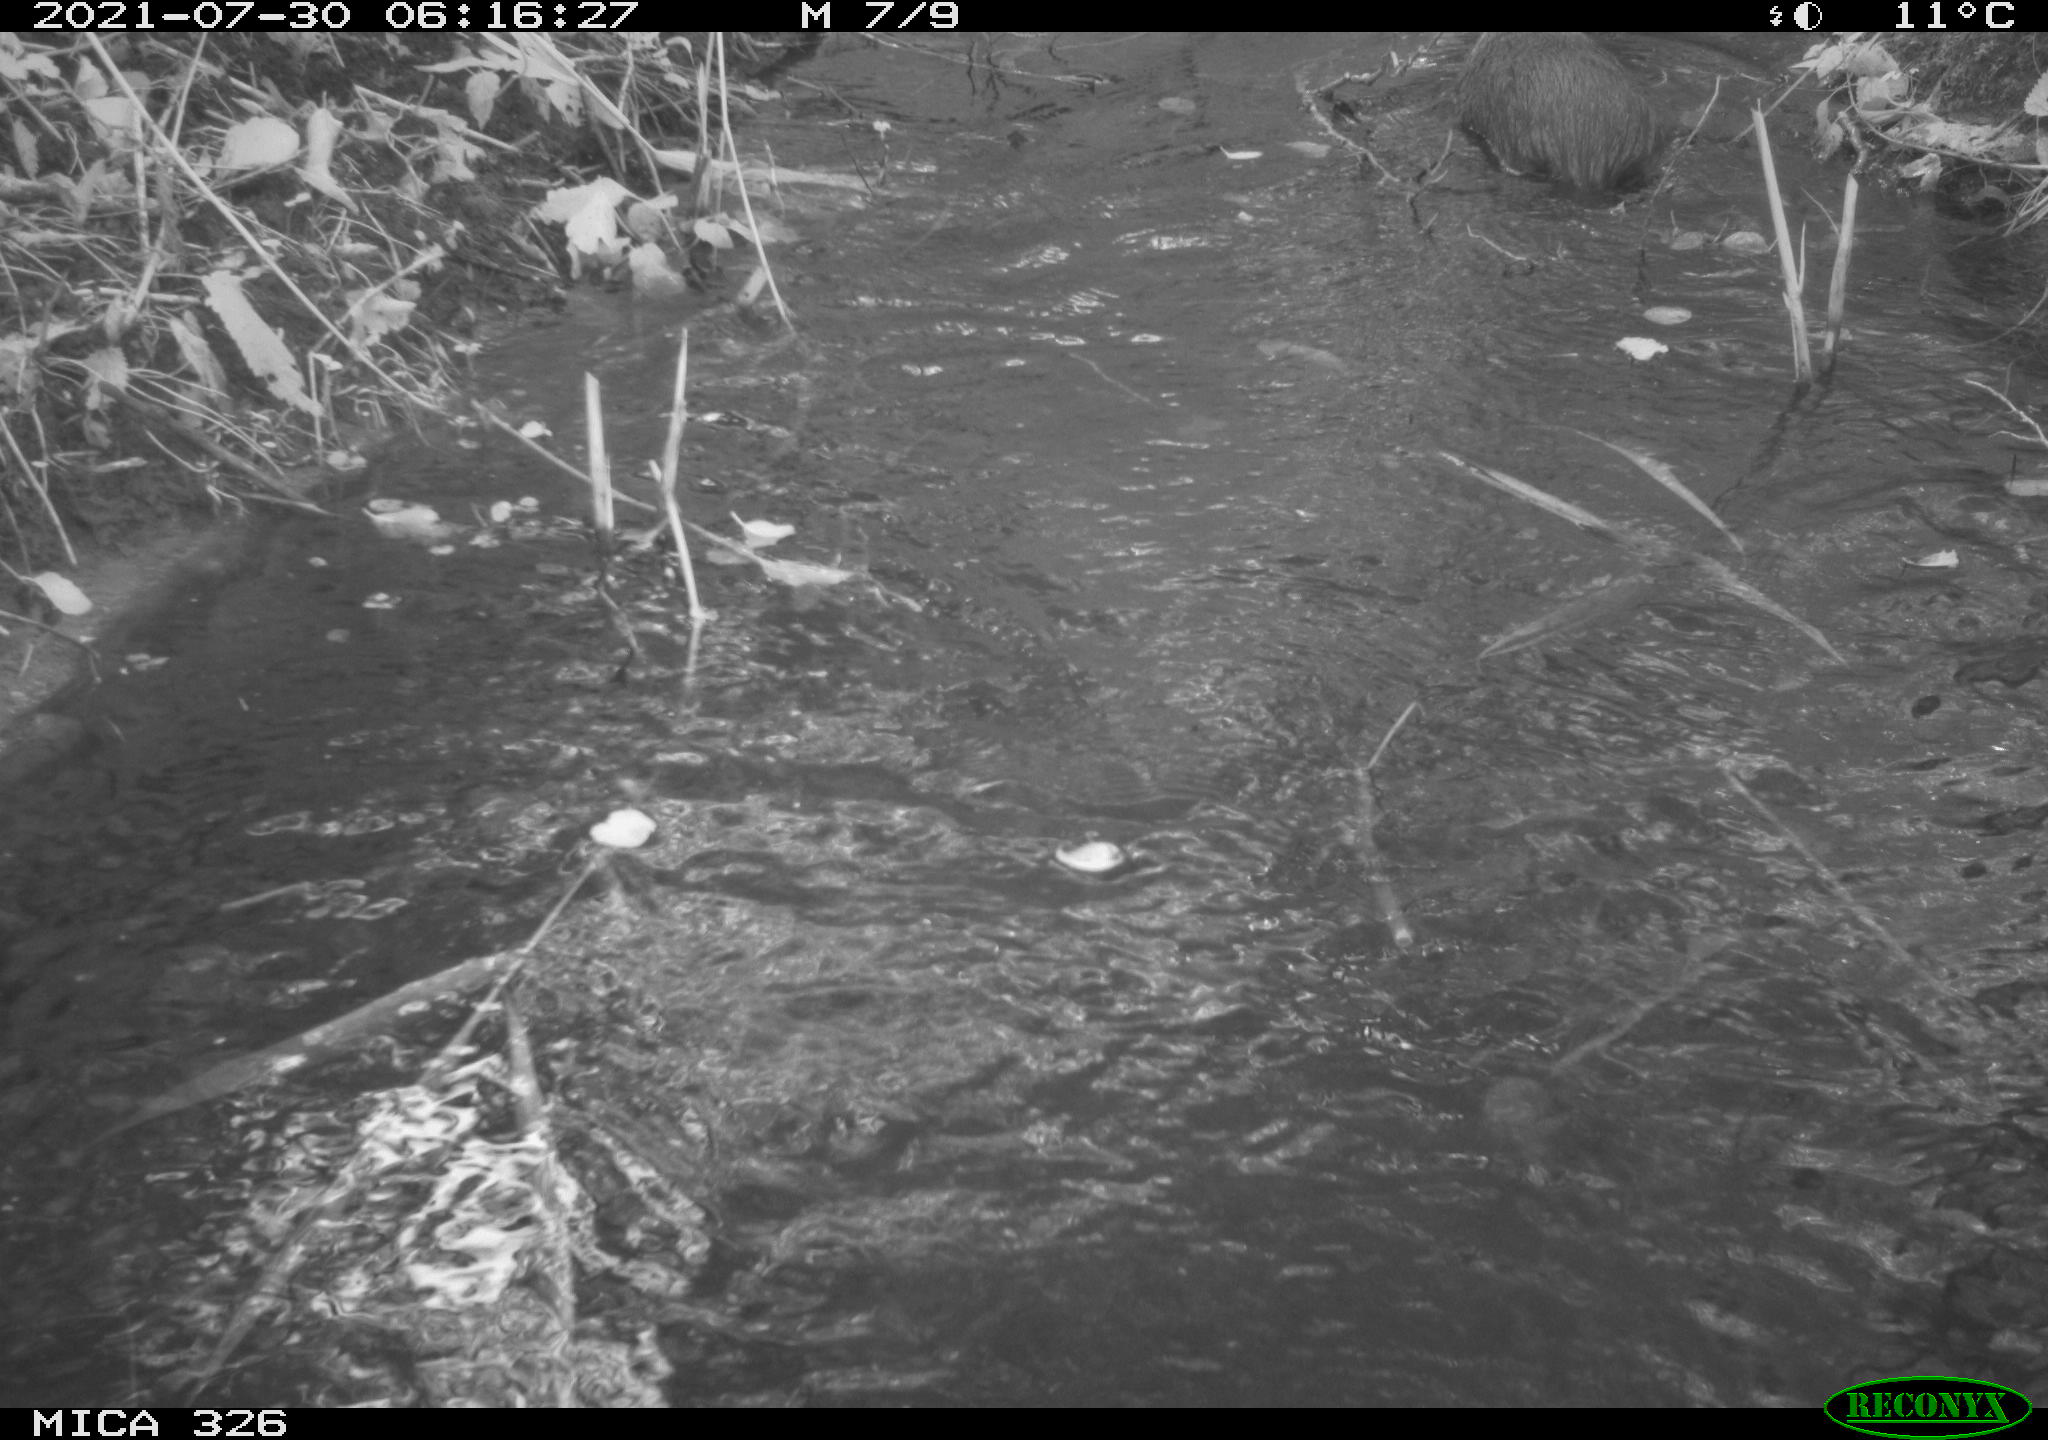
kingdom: Animalia
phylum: Chordata
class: Mammalia
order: Rodentia
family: Myocastoridae
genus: Myocastor
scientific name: Myocastor coypus
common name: Coypu
